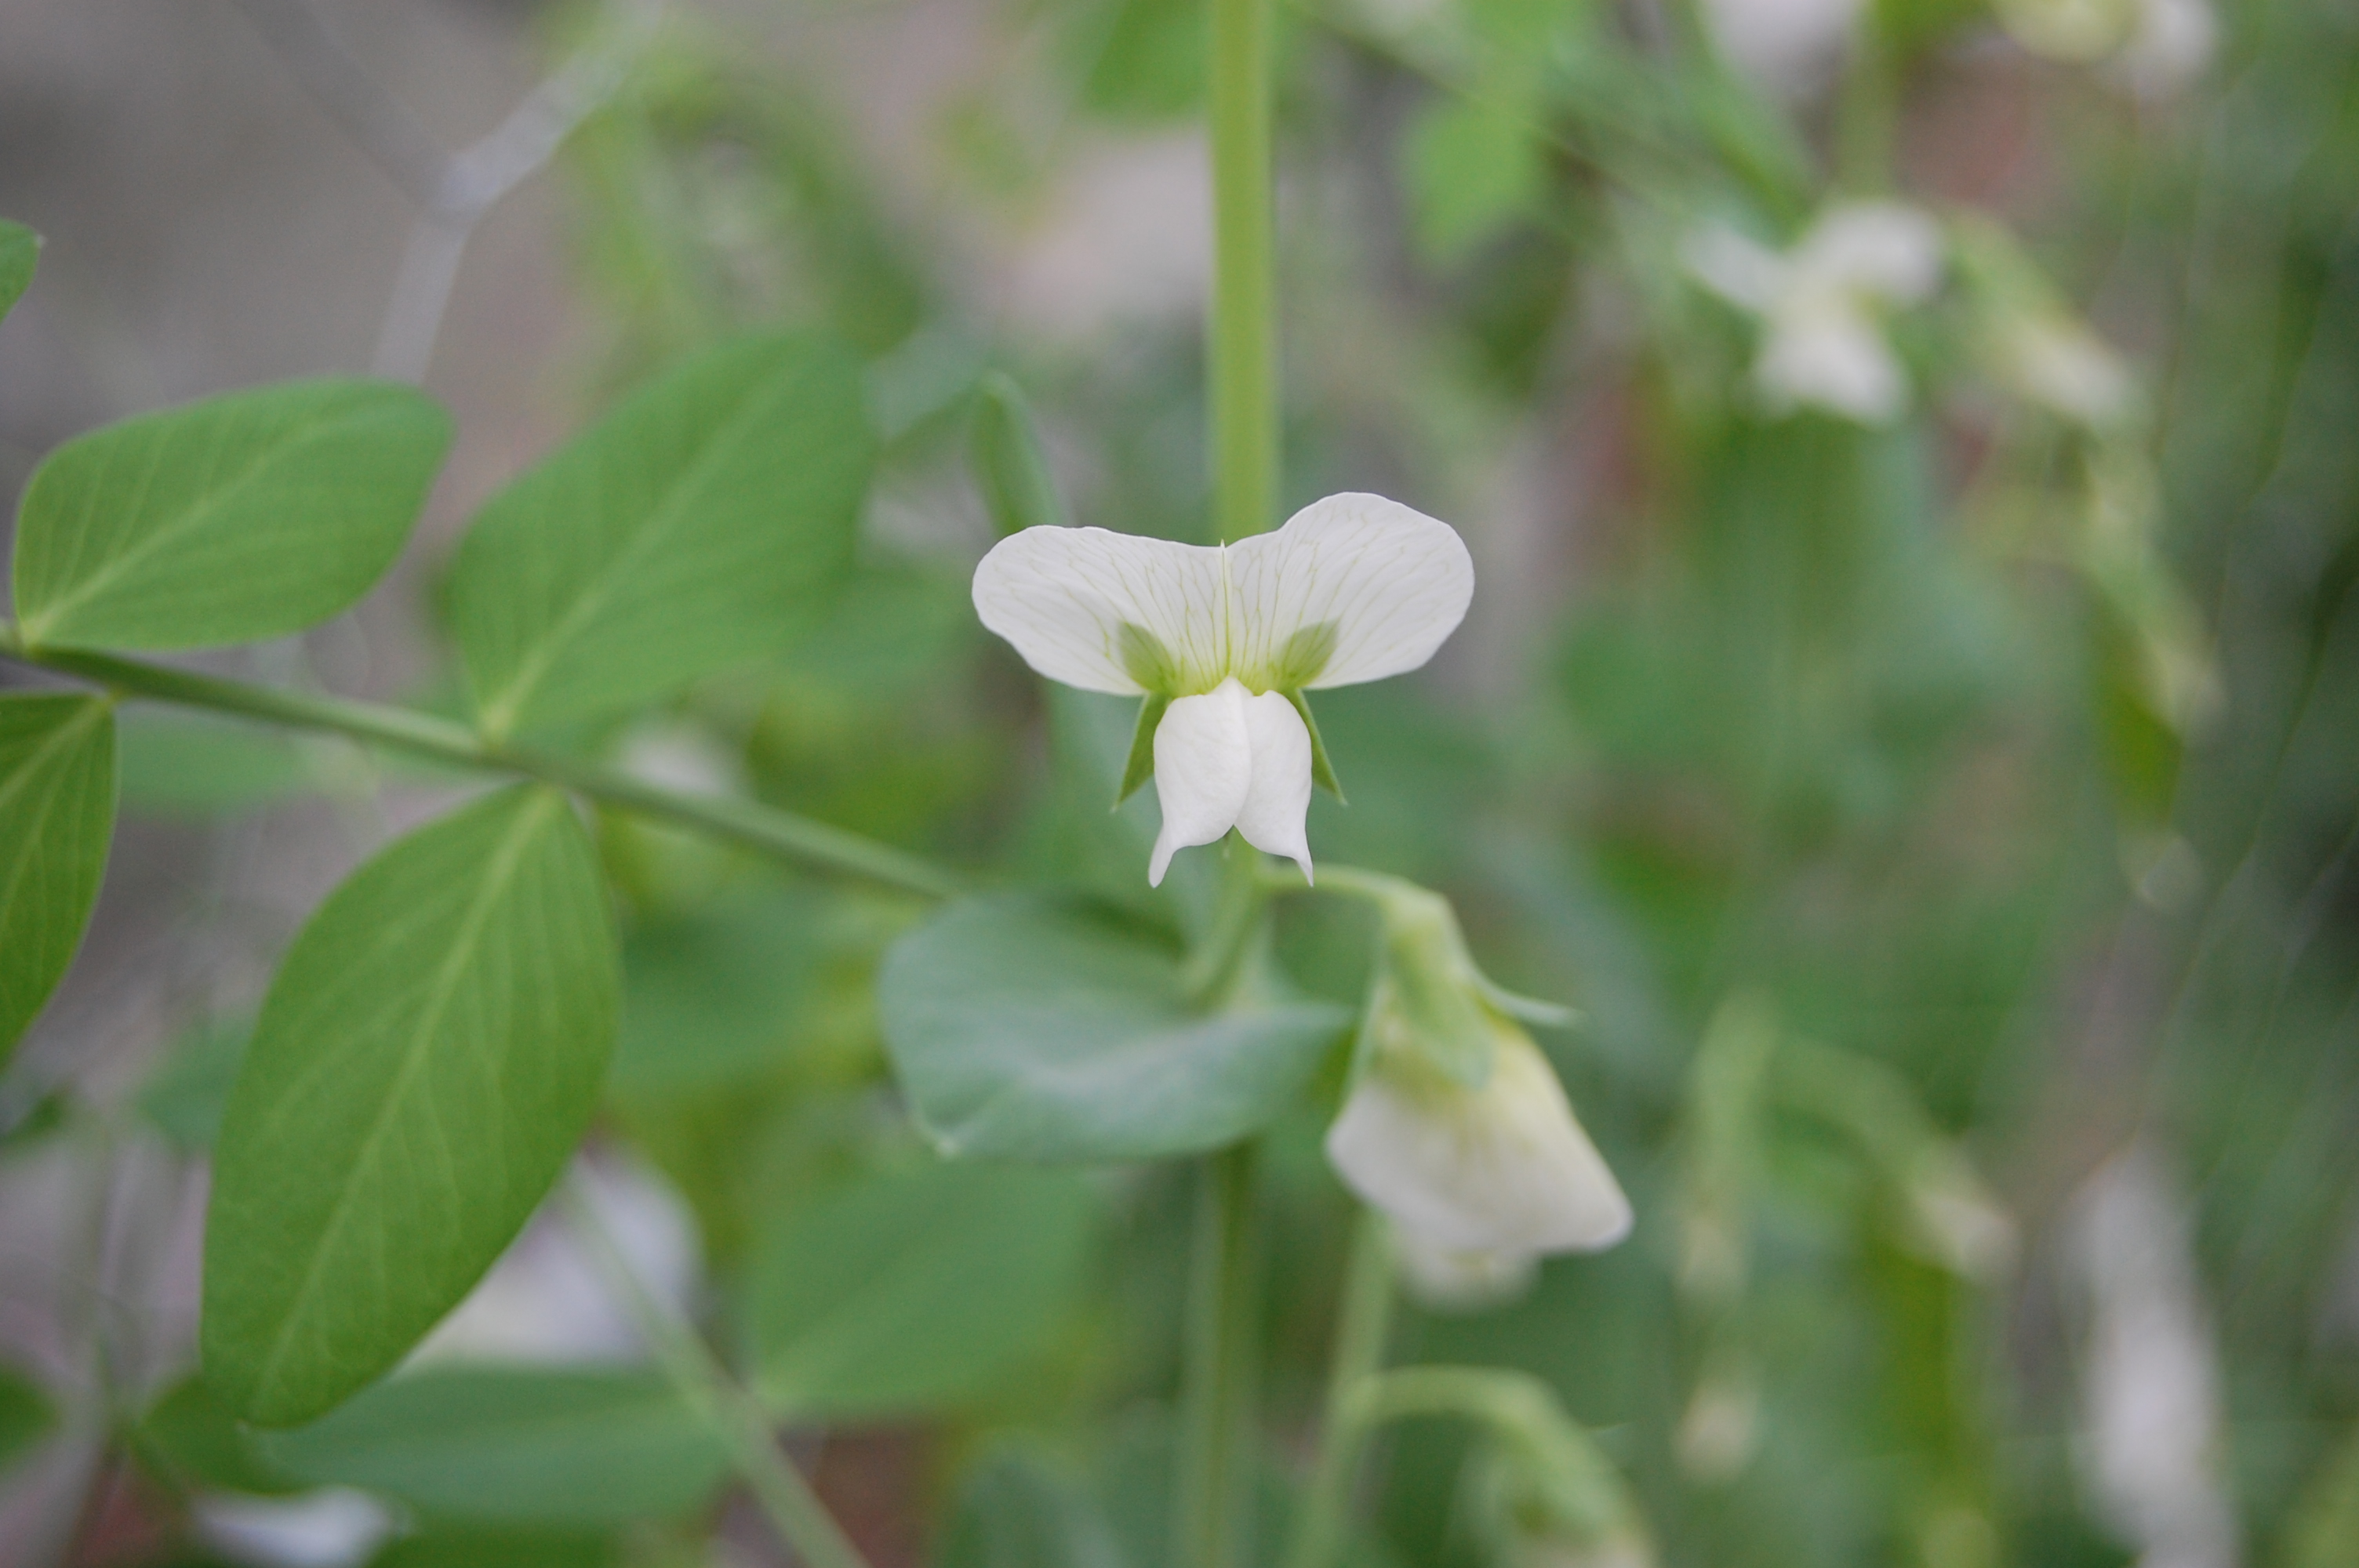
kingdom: Plantae
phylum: Tracheophyta
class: Magnoliopsida
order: Fabales
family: Fabaceae
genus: Lathyrus
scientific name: Lathyrus oleraceus
